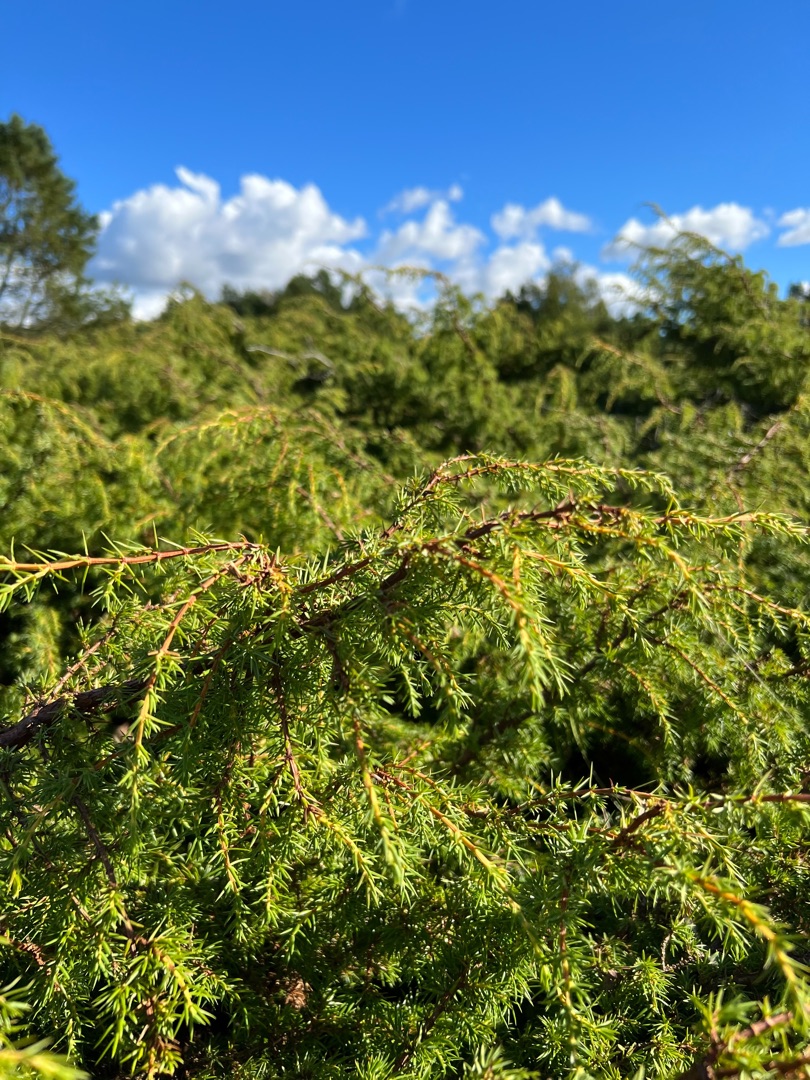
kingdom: Plantae
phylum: Tracheophyta
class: Pinopsida
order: Pinales
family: Cupressaceae
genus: Juniperus
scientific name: Juniperus communis
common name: Almindelig ene
